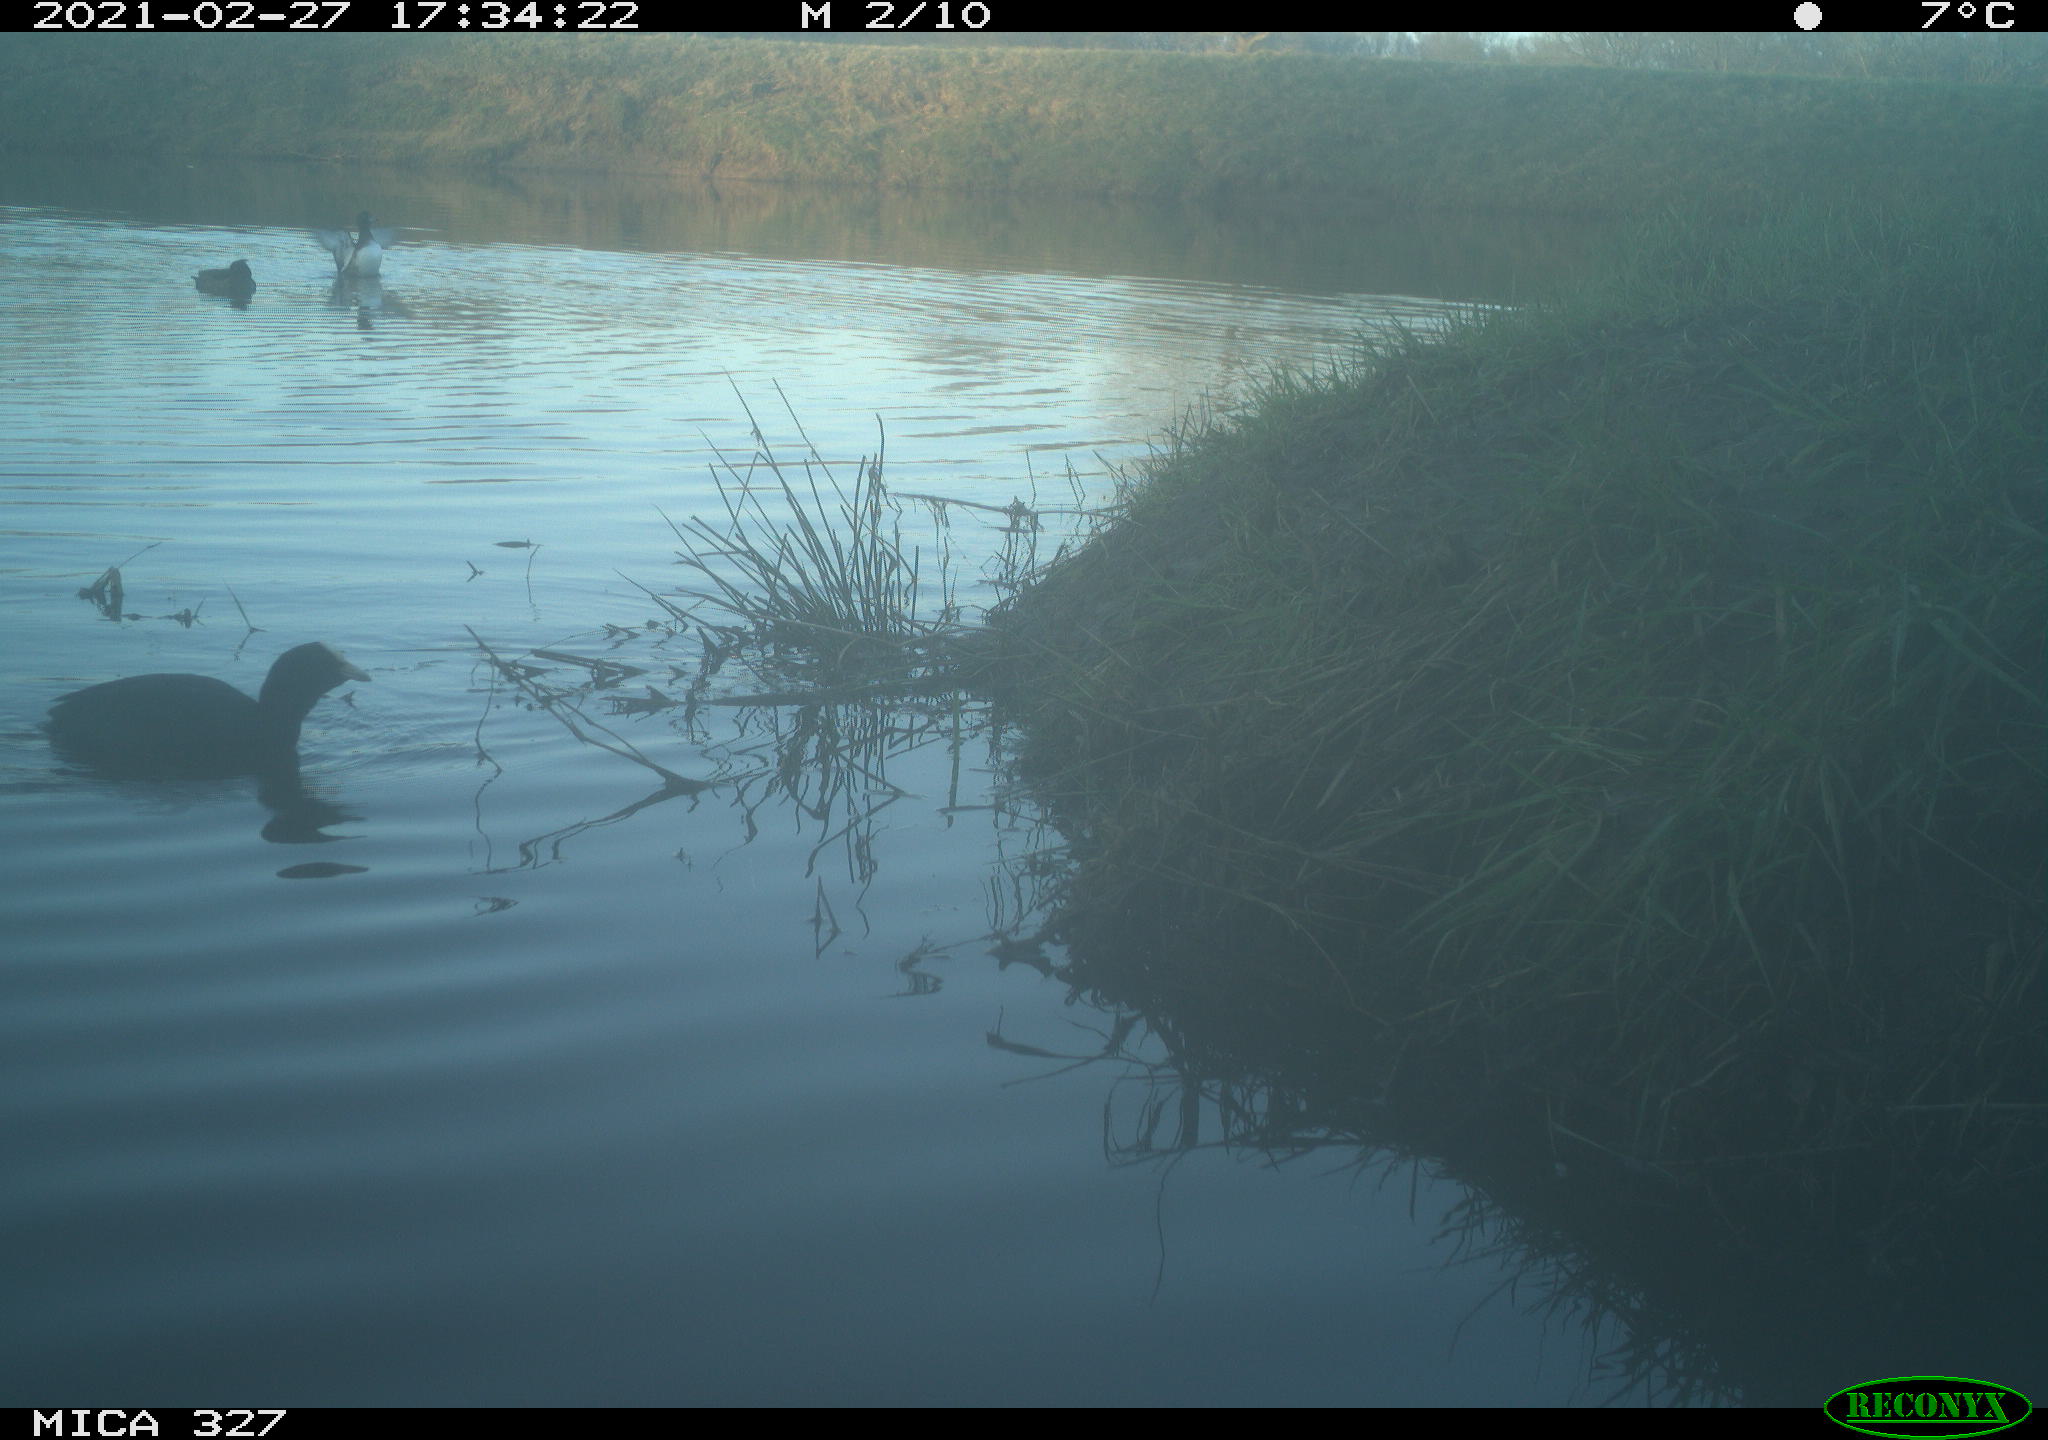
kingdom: Animalia
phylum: Chordata
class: Aves
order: Anseriformes
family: Anatidae
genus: Anas
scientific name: Anas
